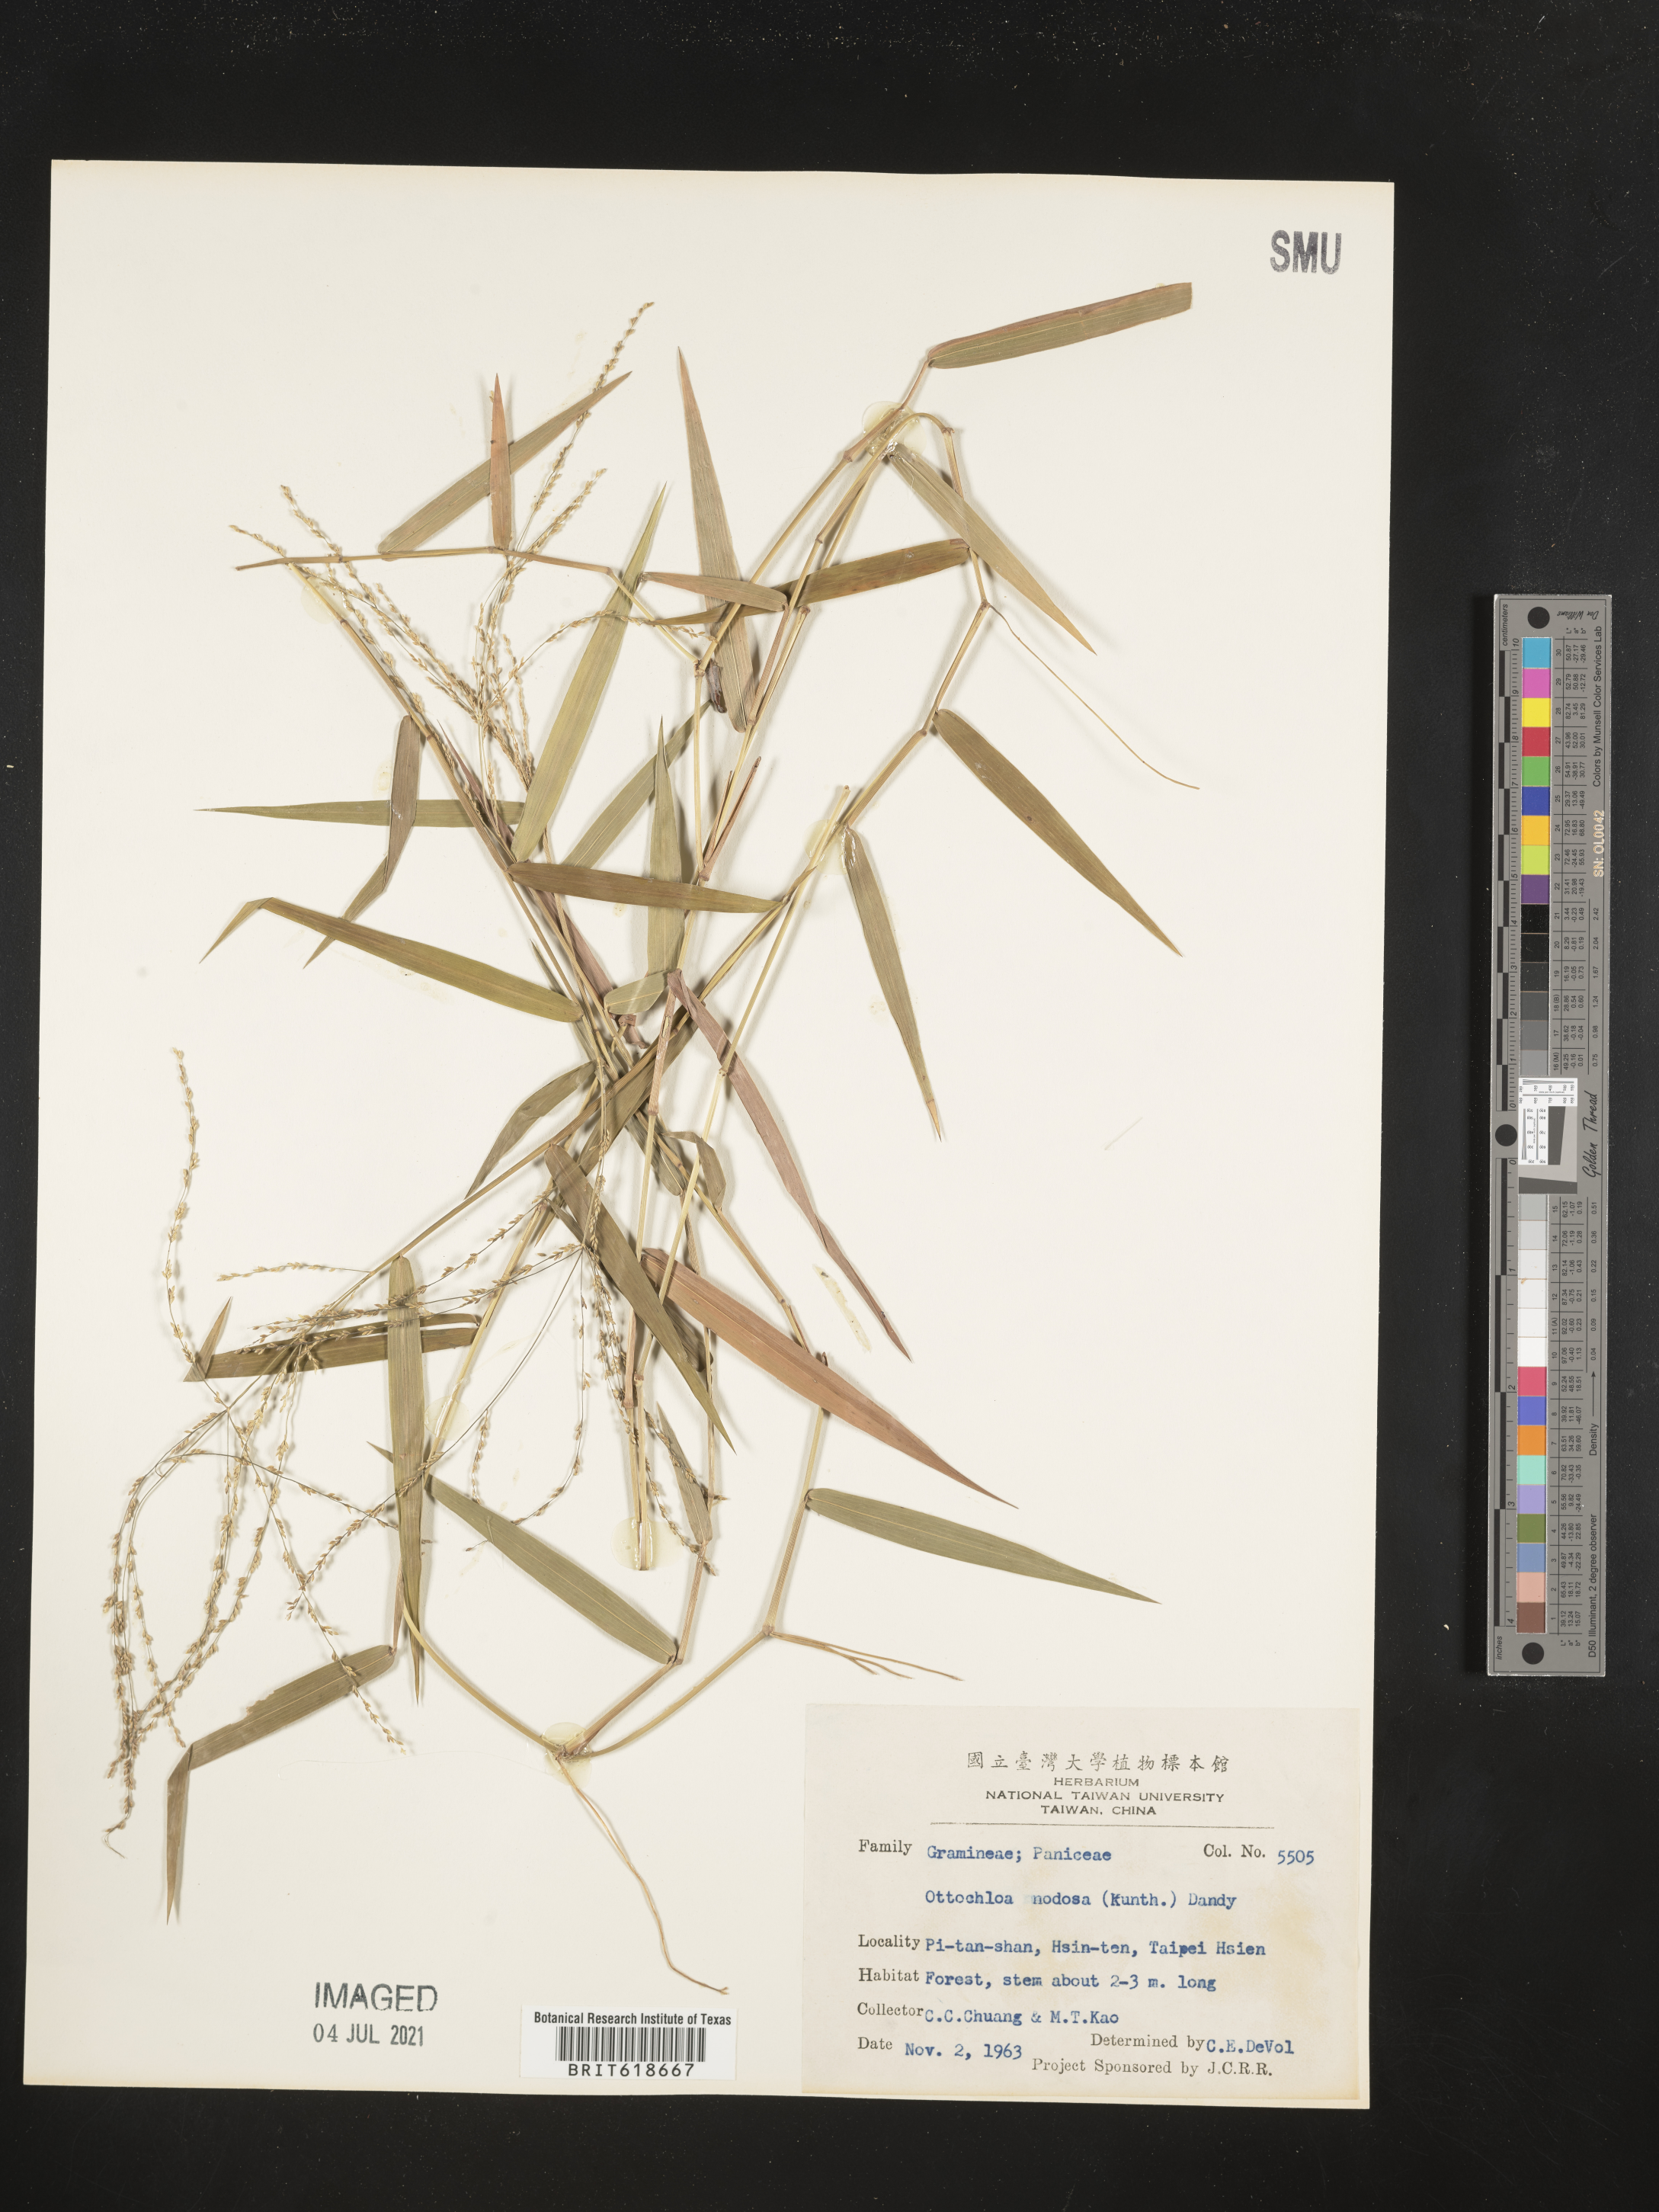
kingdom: Plantae
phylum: Tracheophyta
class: Liliopsida
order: Poales
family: Poaceae
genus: Ottochloa
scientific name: Ottochloa nodosa
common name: Slender-panic grass
